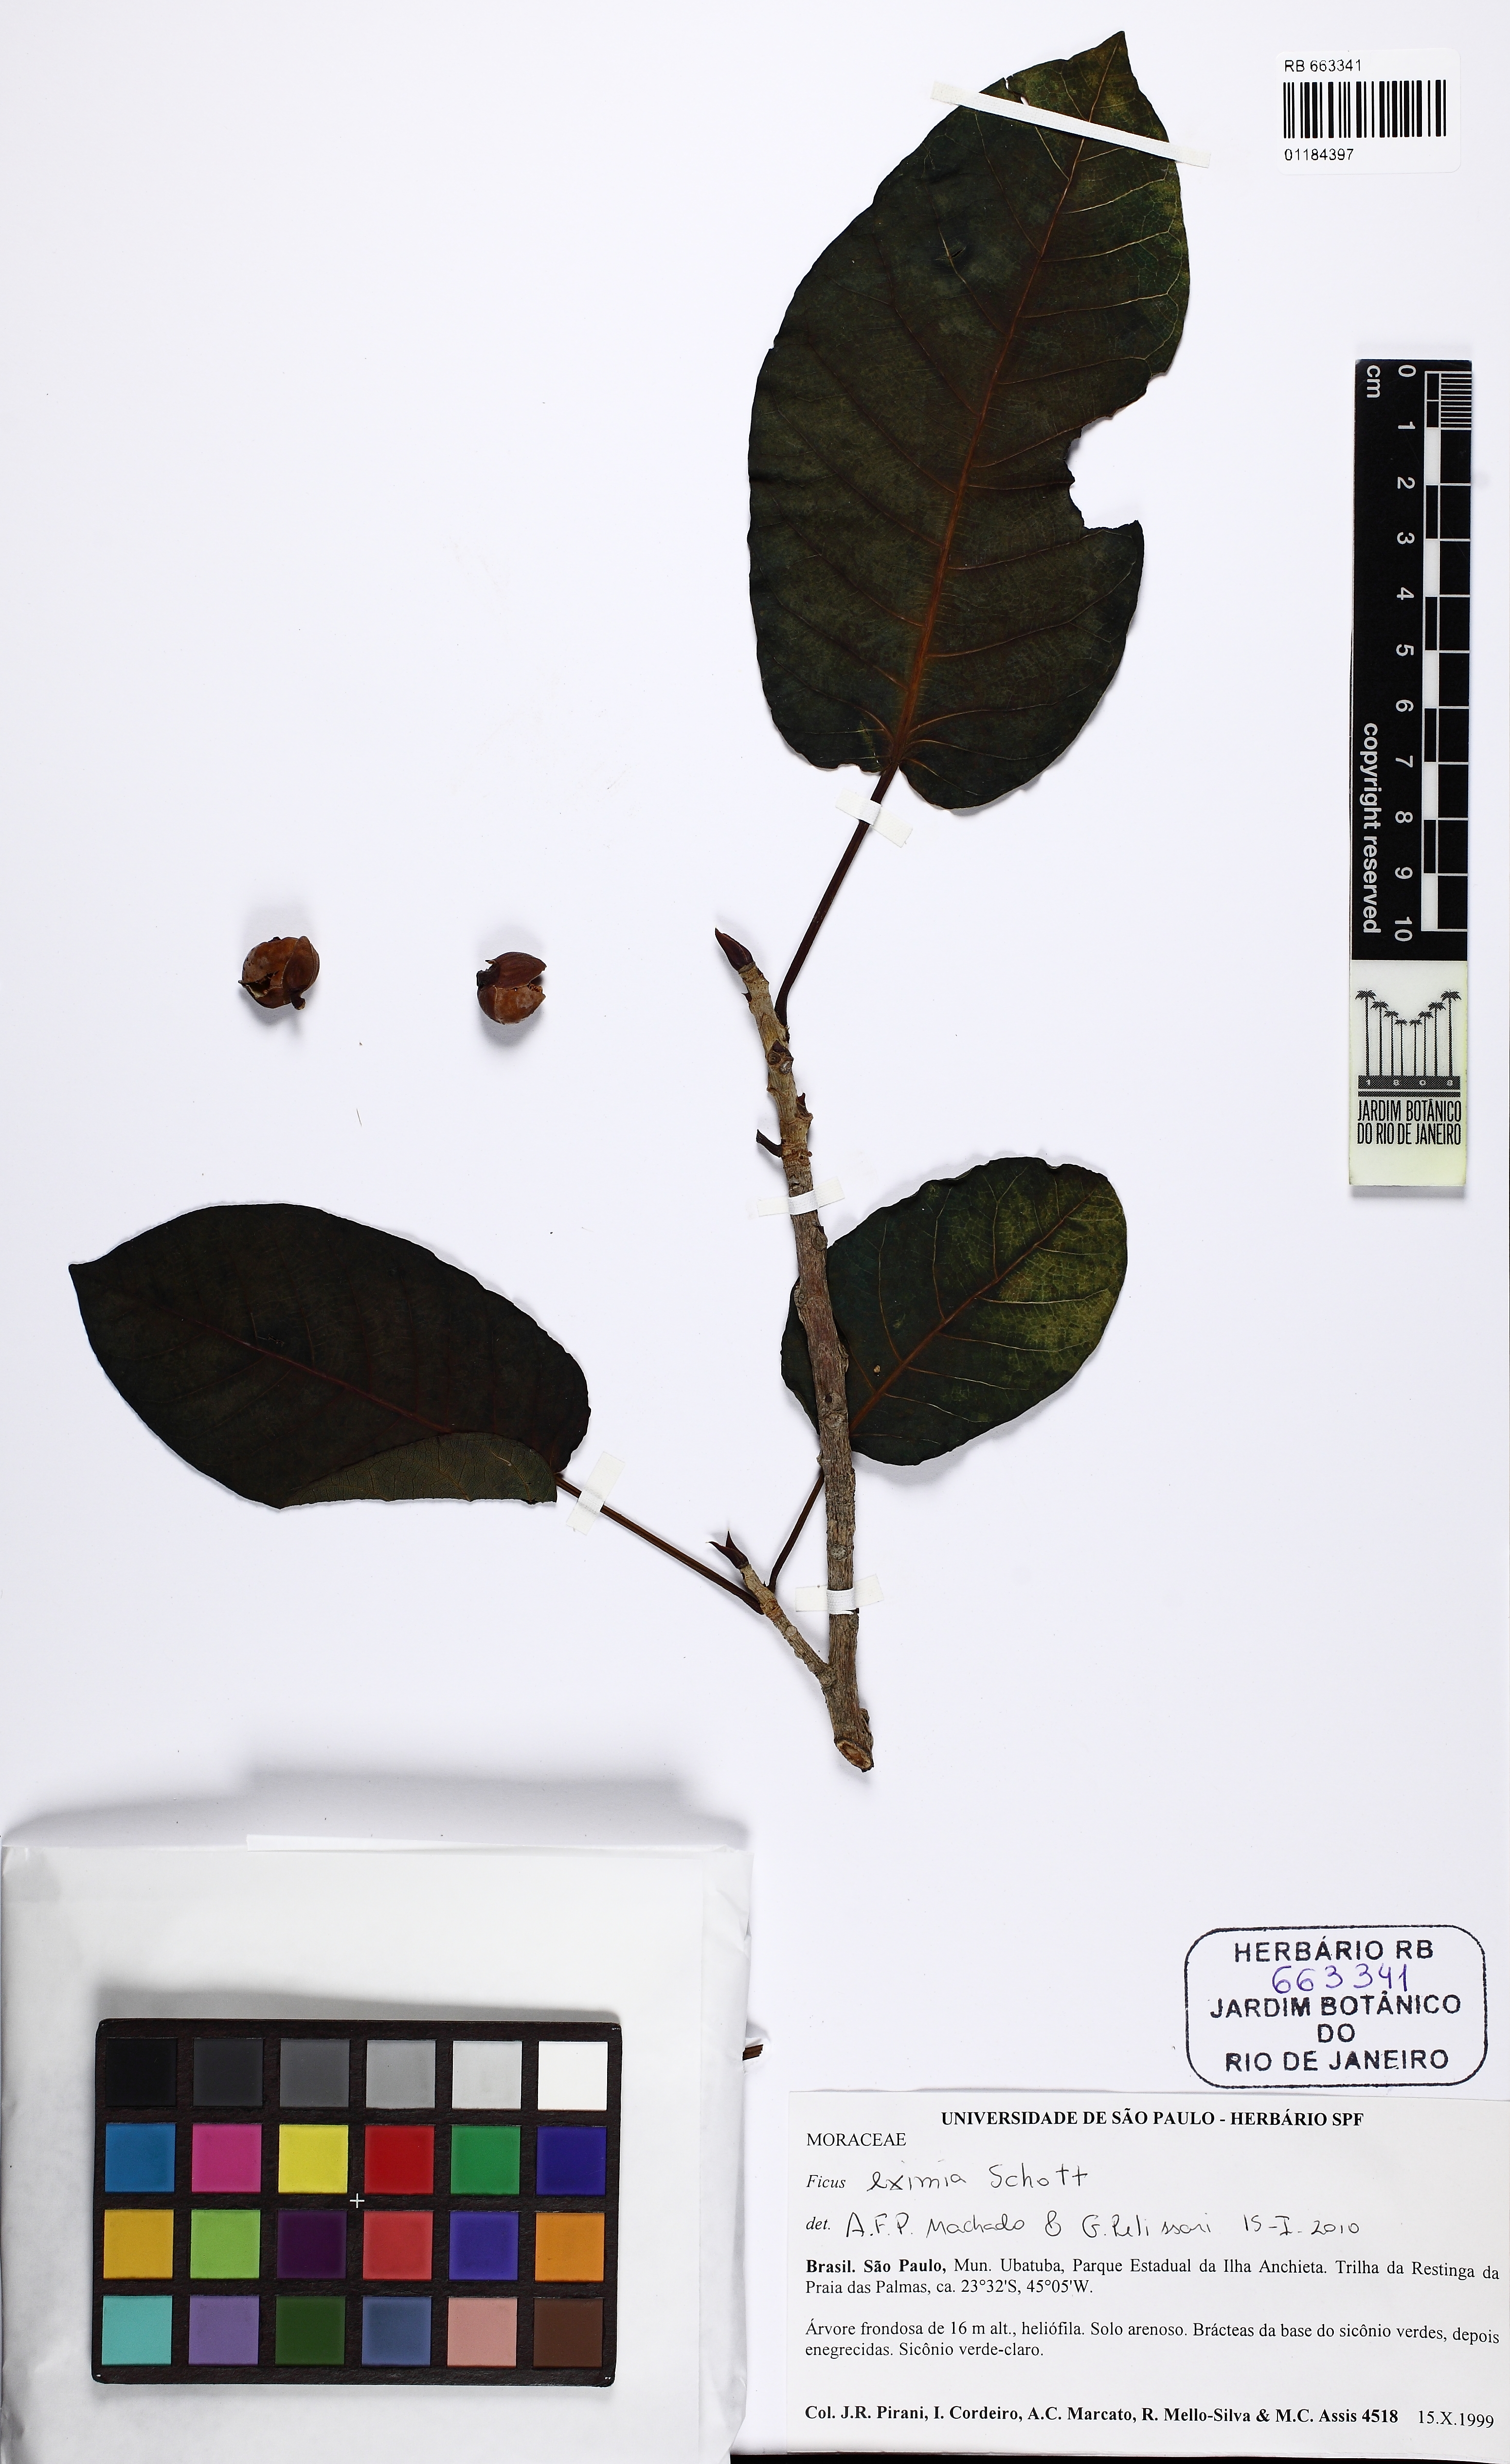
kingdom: Plantae
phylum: Tracheophyta
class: Magnoliopsida
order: Rosales
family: Moraceae
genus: Ficus
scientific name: Ficus eximia
